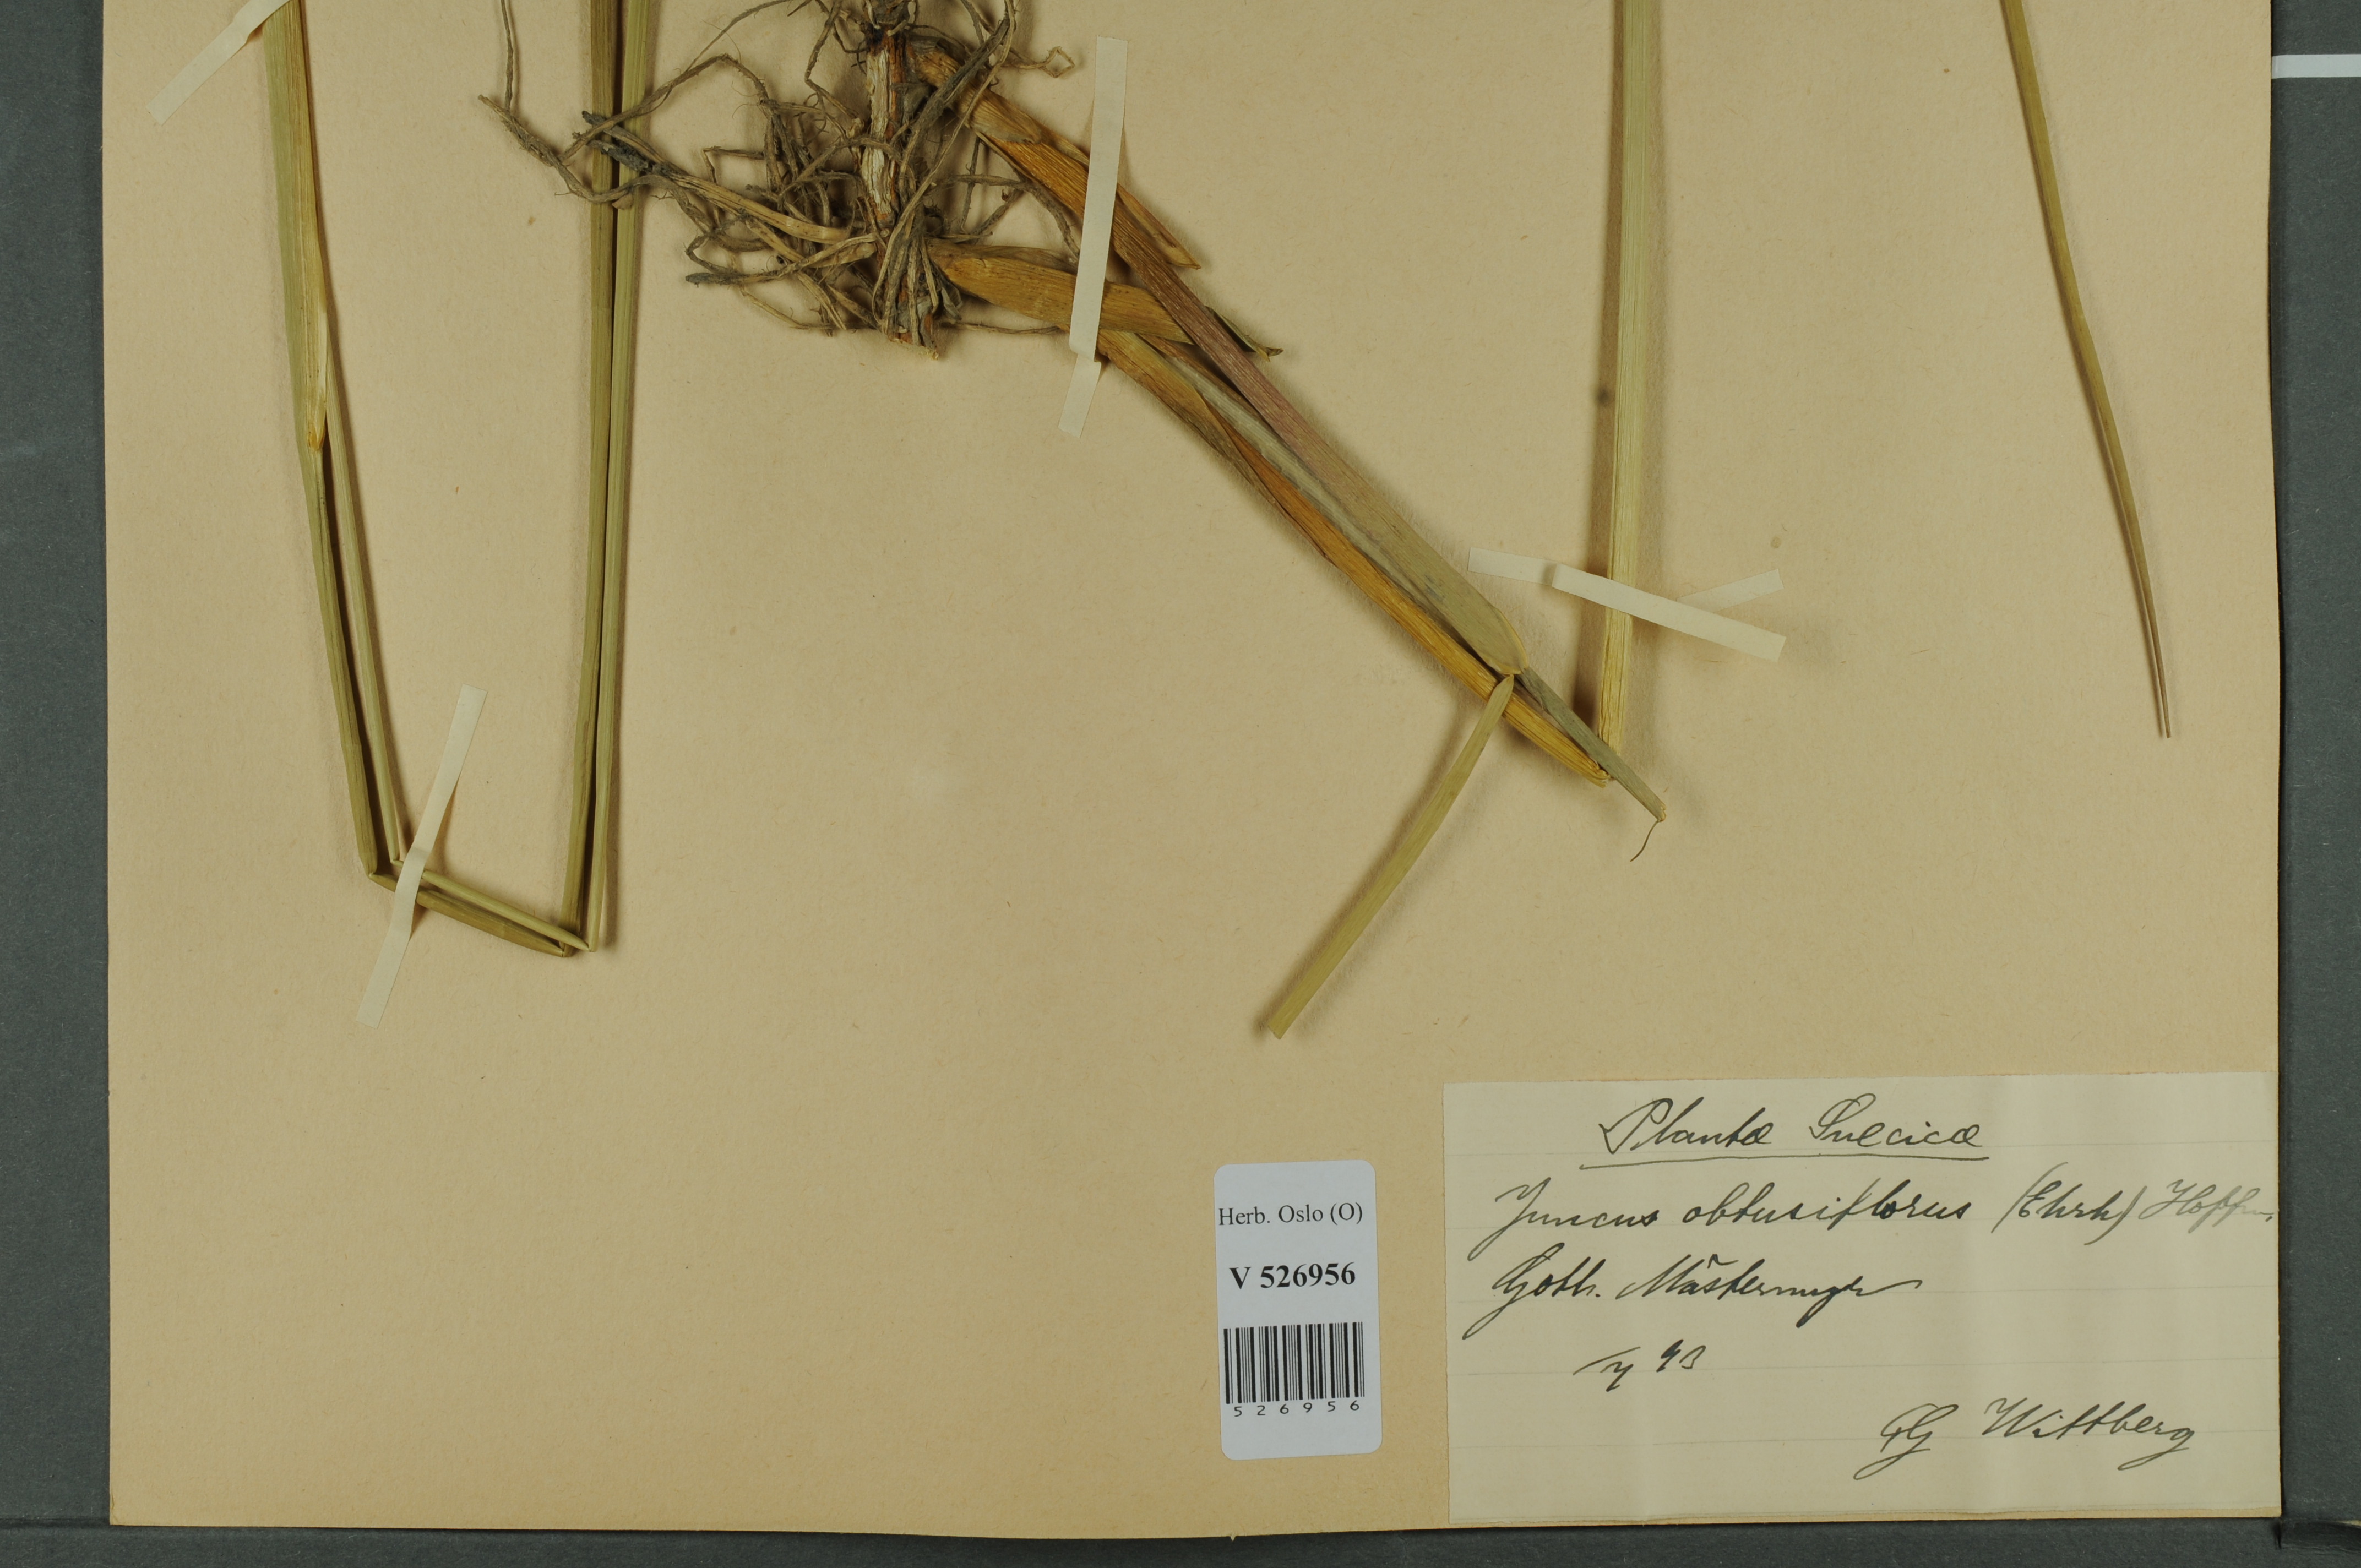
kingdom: Plantae
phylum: Tracheophyta
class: Liliopsida
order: Poales
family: Juncaceae
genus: Juncus
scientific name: Juncus subnodulosus
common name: Blunt-flowered rush
